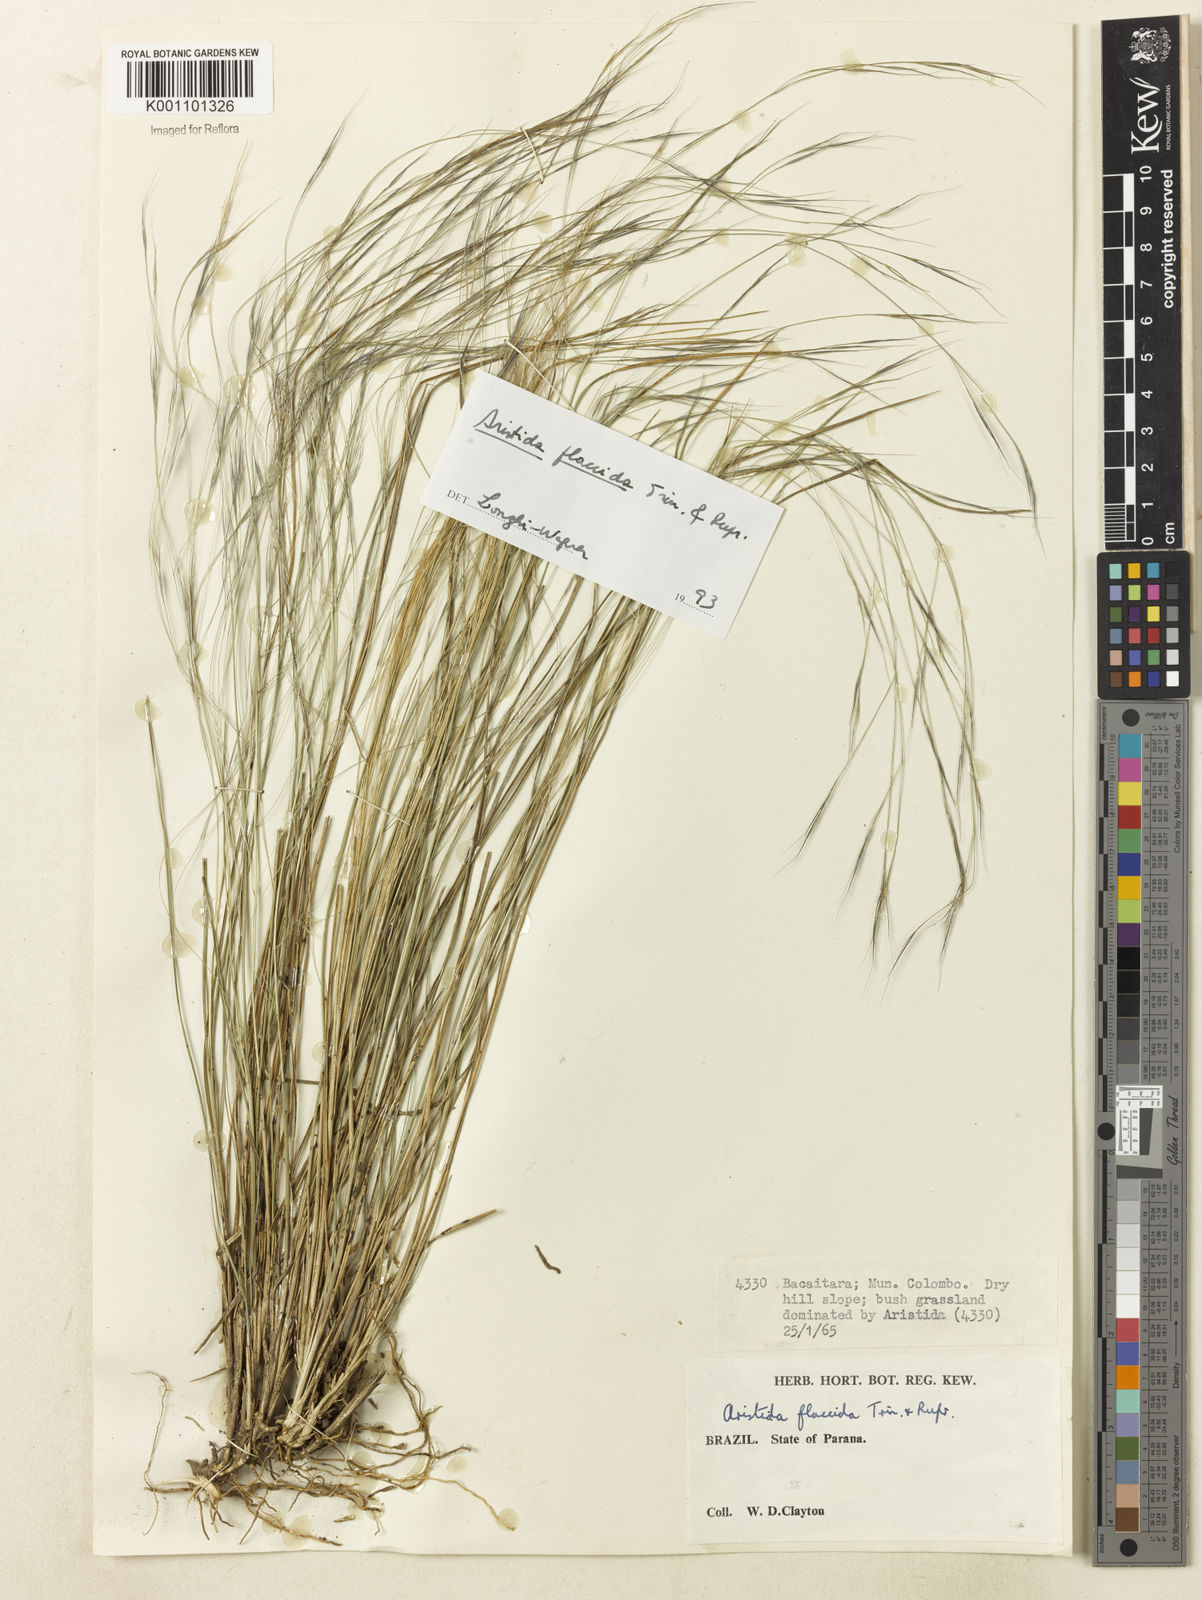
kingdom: Plantae
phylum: Tracheophyta
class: Liliopsida
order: Poales
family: Poaceae
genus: Aristida
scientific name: Aristida flaccida
